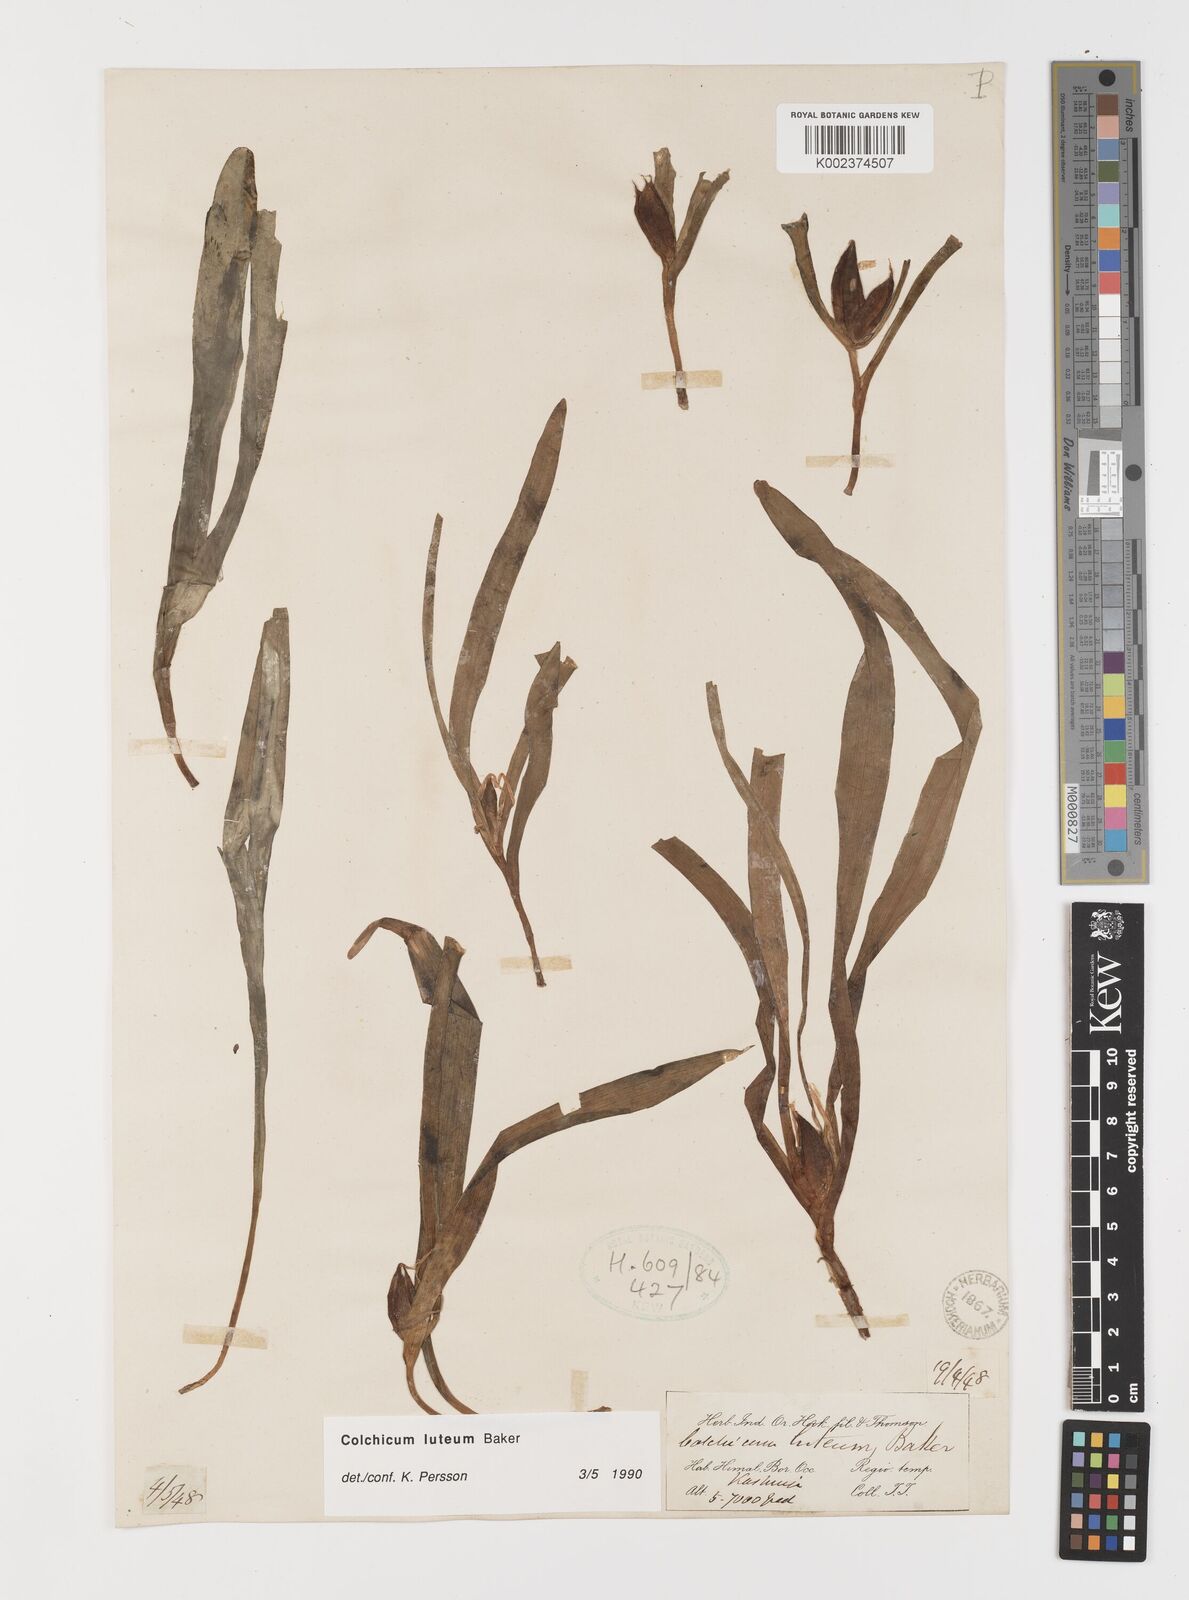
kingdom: Plantae
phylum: Tracheophyta
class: Liliopsida
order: Liliales
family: Colchicaceae
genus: Colchicum
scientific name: Colchicum luteum
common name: Indian colchicum
